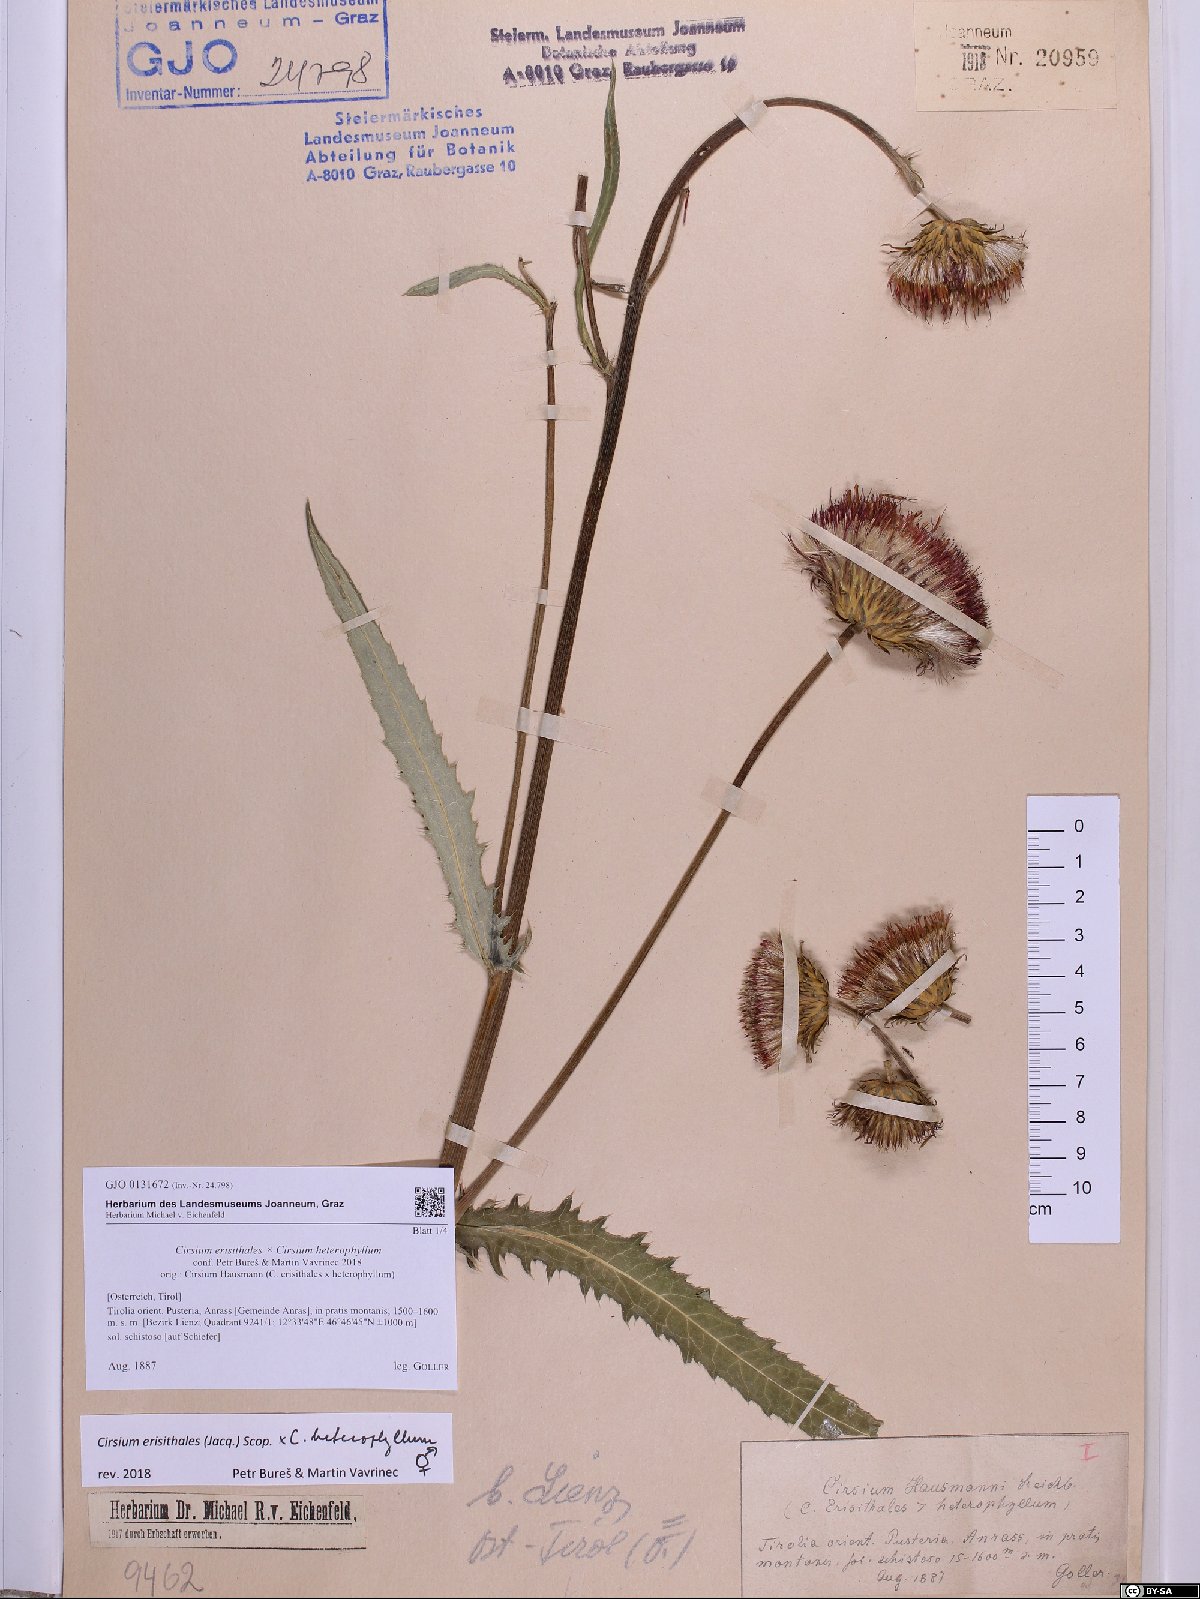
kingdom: Plantae
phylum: Tracheophyta
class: Magnoliopsida
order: Asterales
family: Asteraceae
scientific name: Asteraceae
